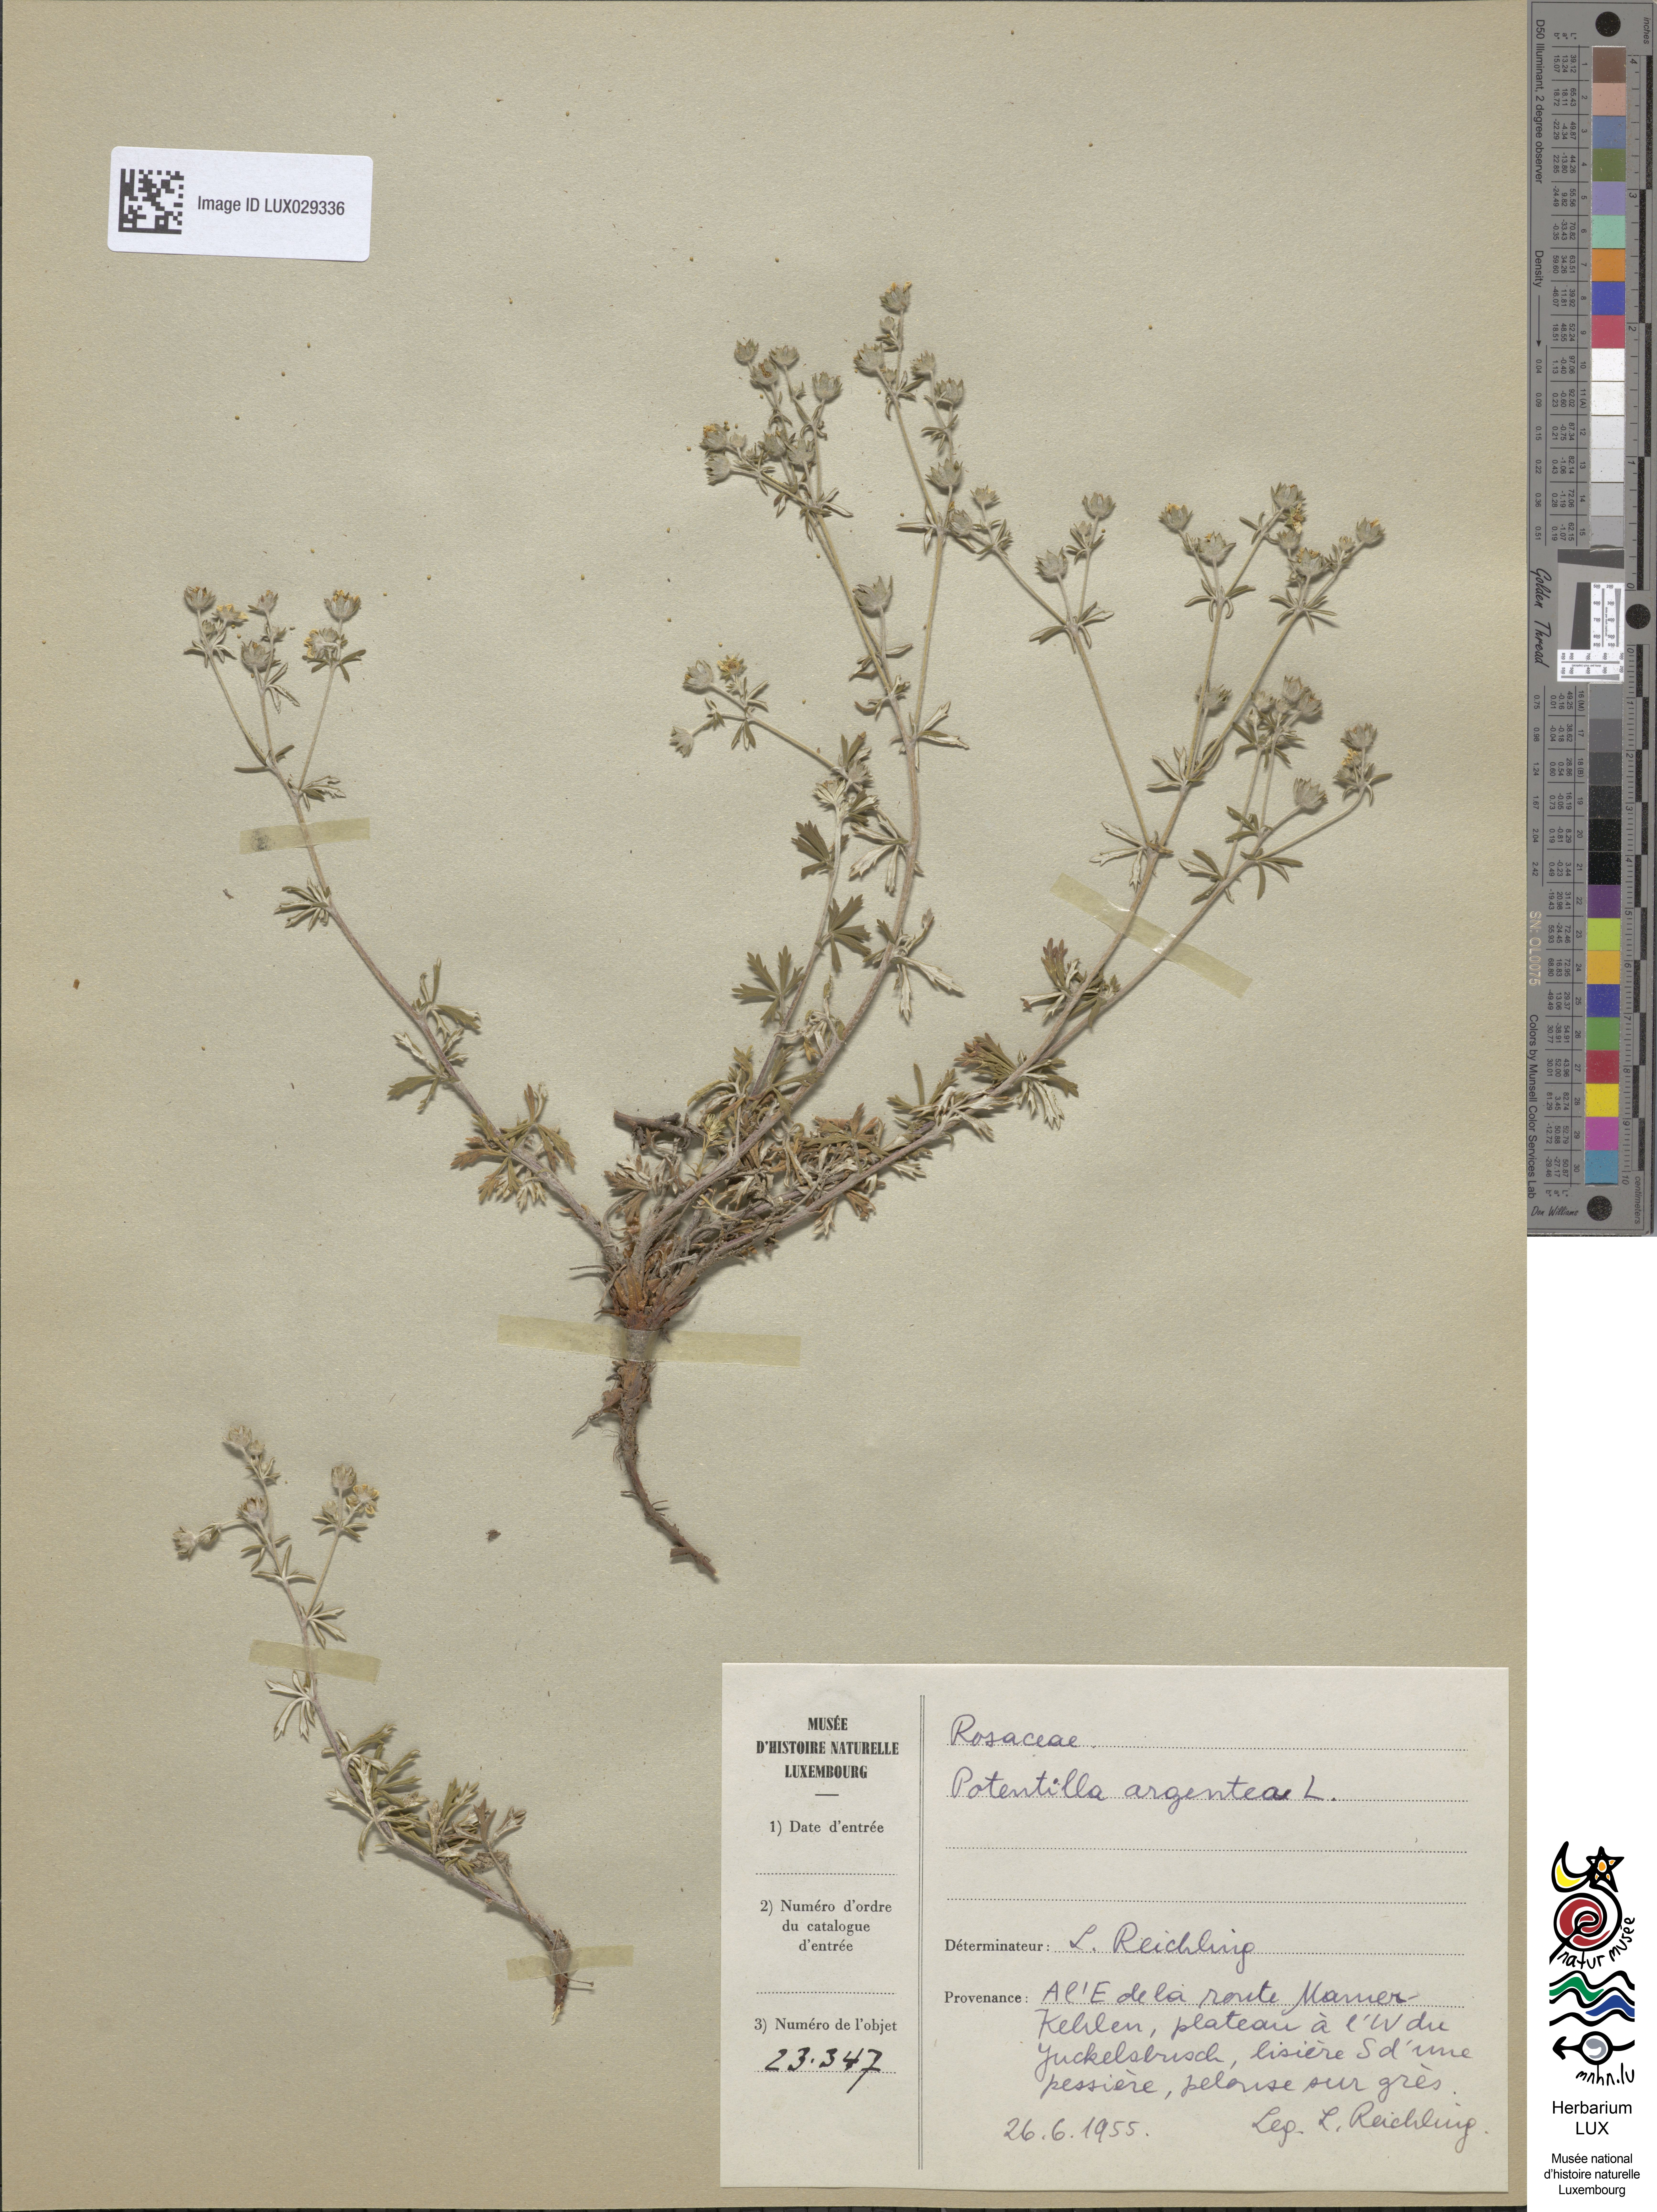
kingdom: Plantae
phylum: Tracheophyta
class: Magnoliopsida
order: Rosales
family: Rosaceae
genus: Potentilla
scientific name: Potentilla argentea
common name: Hoary cinquefoil
